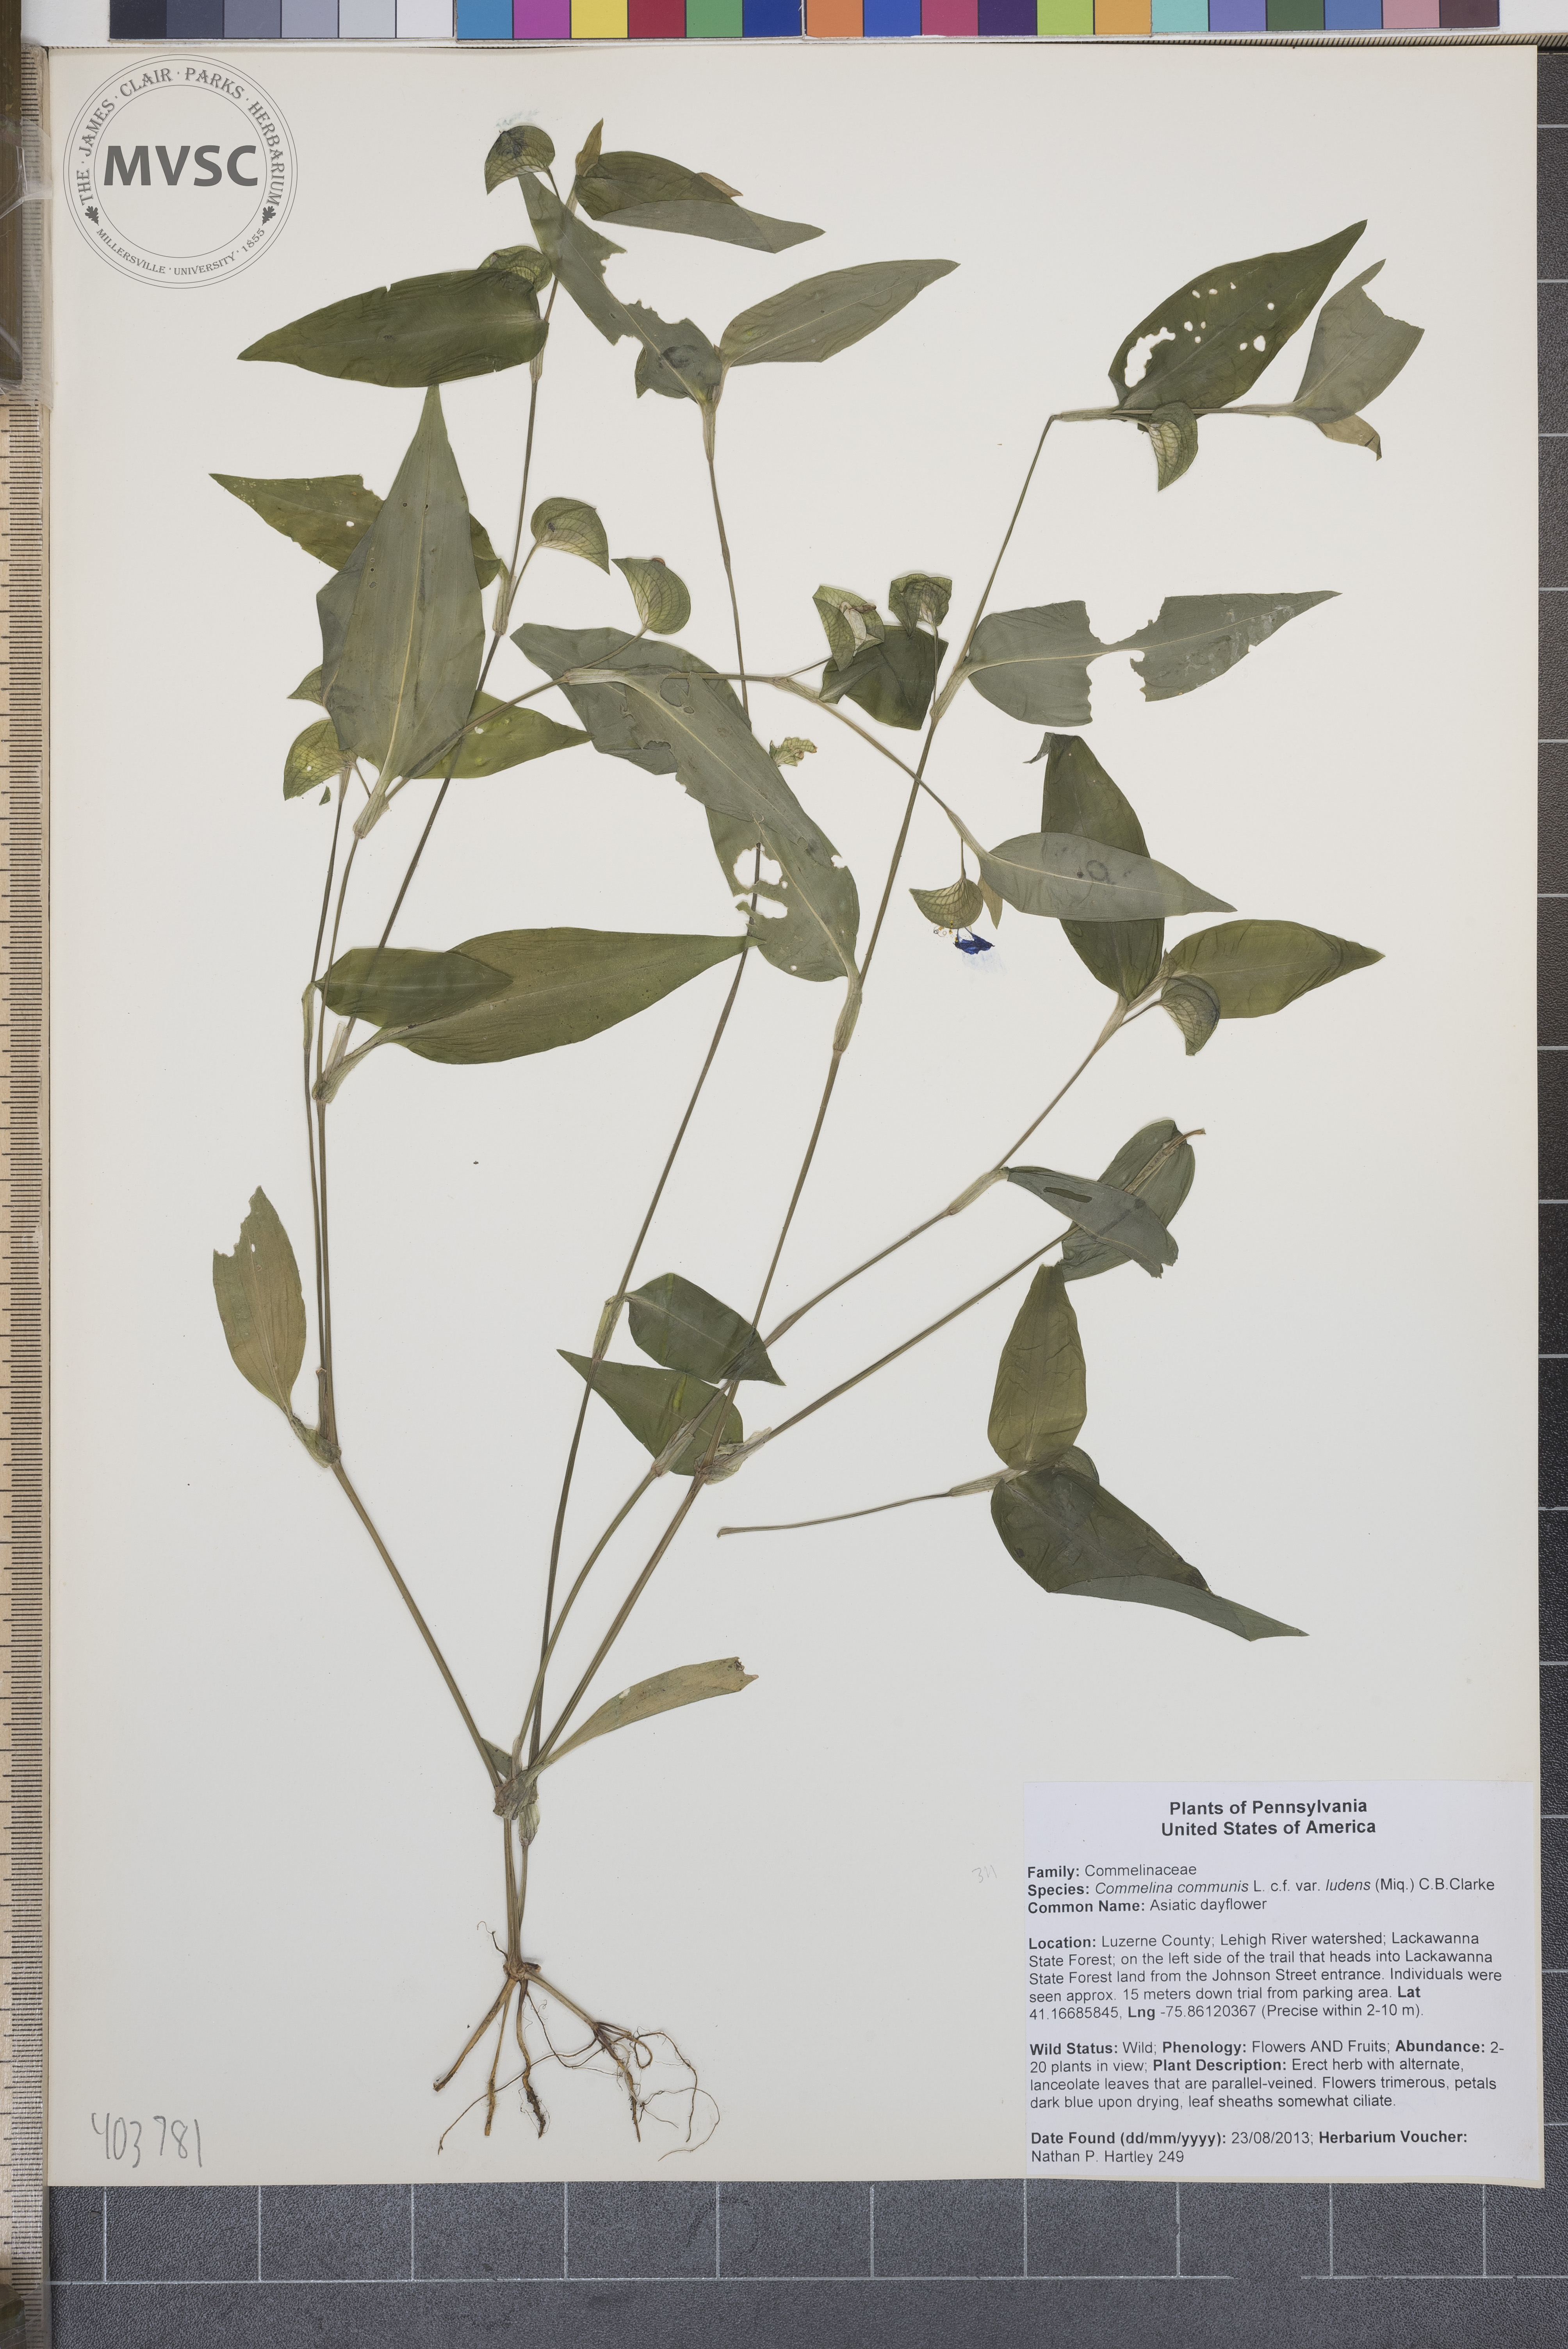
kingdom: Plantae
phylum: Tracheophyta
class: Liliopsida
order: Commelinales
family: Commelinaceae
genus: Commelina
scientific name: Commelina communis
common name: Asiatic dayflower
